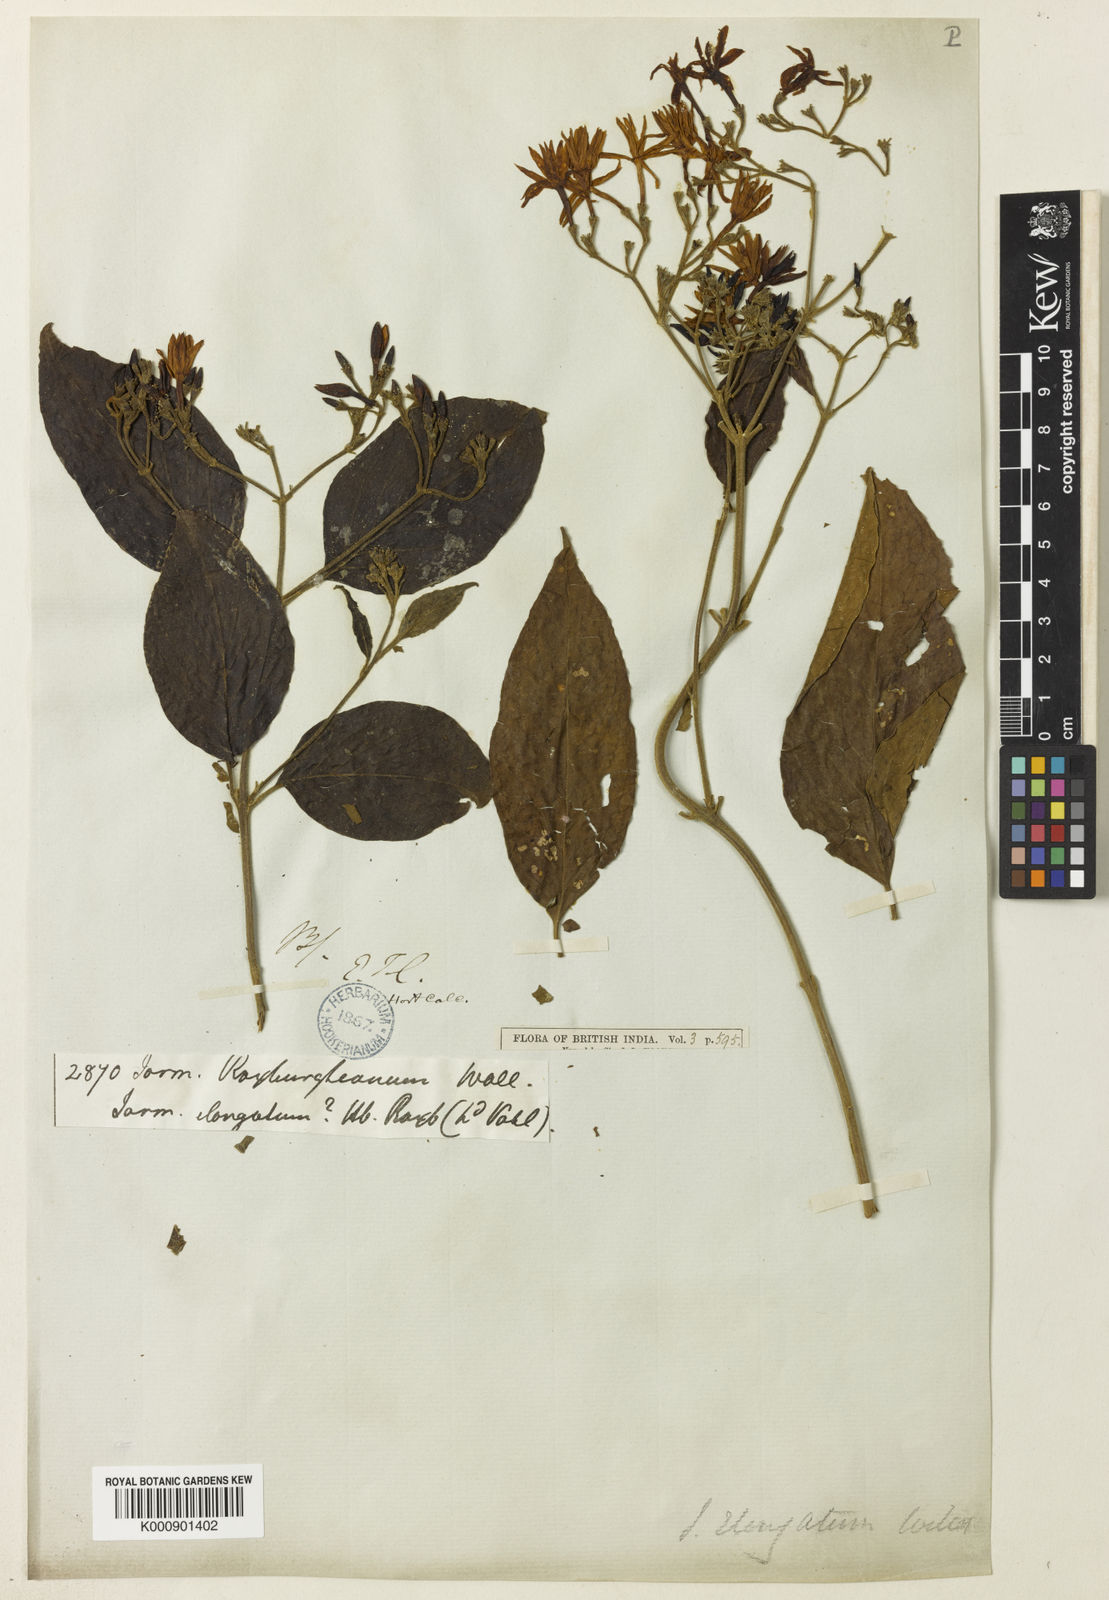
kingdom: Plantae
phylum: Tracheophyta
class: Magnoliopsida
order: Lamiales
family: Oleaceae
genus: Jasminum
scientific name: Jasminum
